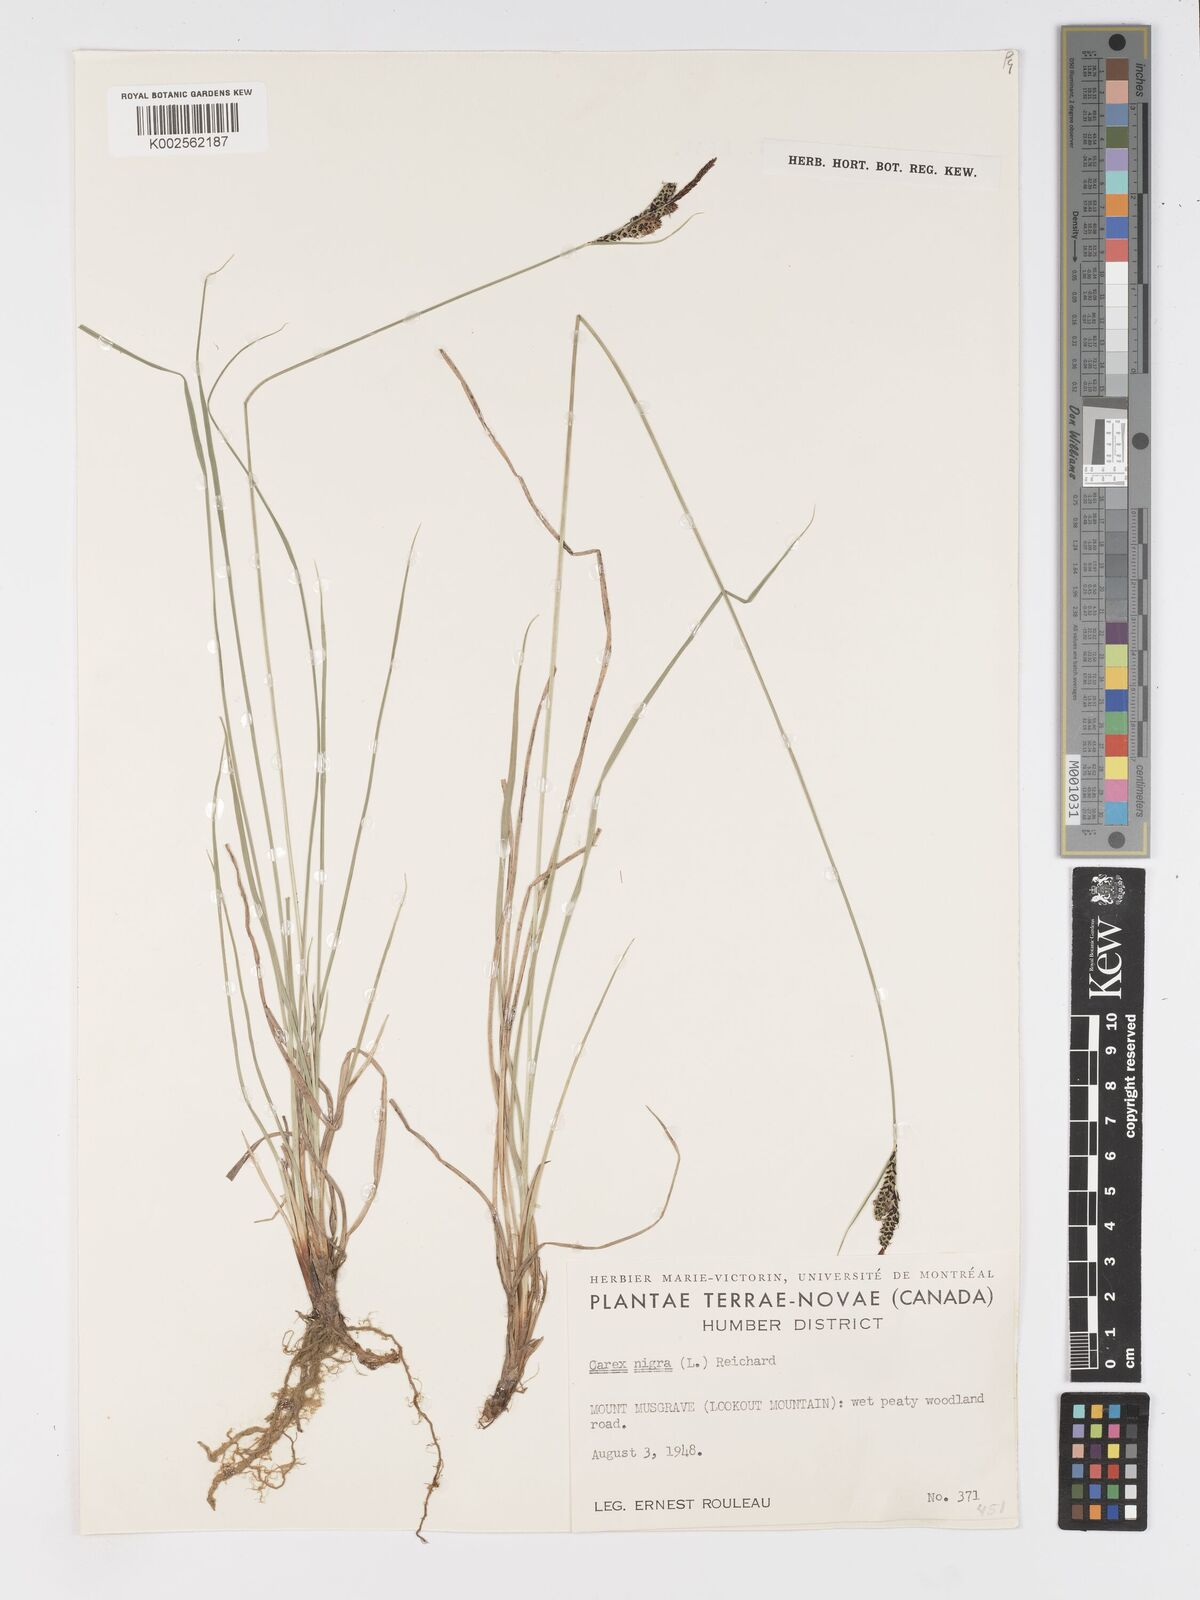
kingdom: Plantae
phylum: Tracheophyta
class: Liliopsida
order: Poales
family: Cyperaceae
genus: Carex
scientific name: Carex nigra
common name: Common sedge
